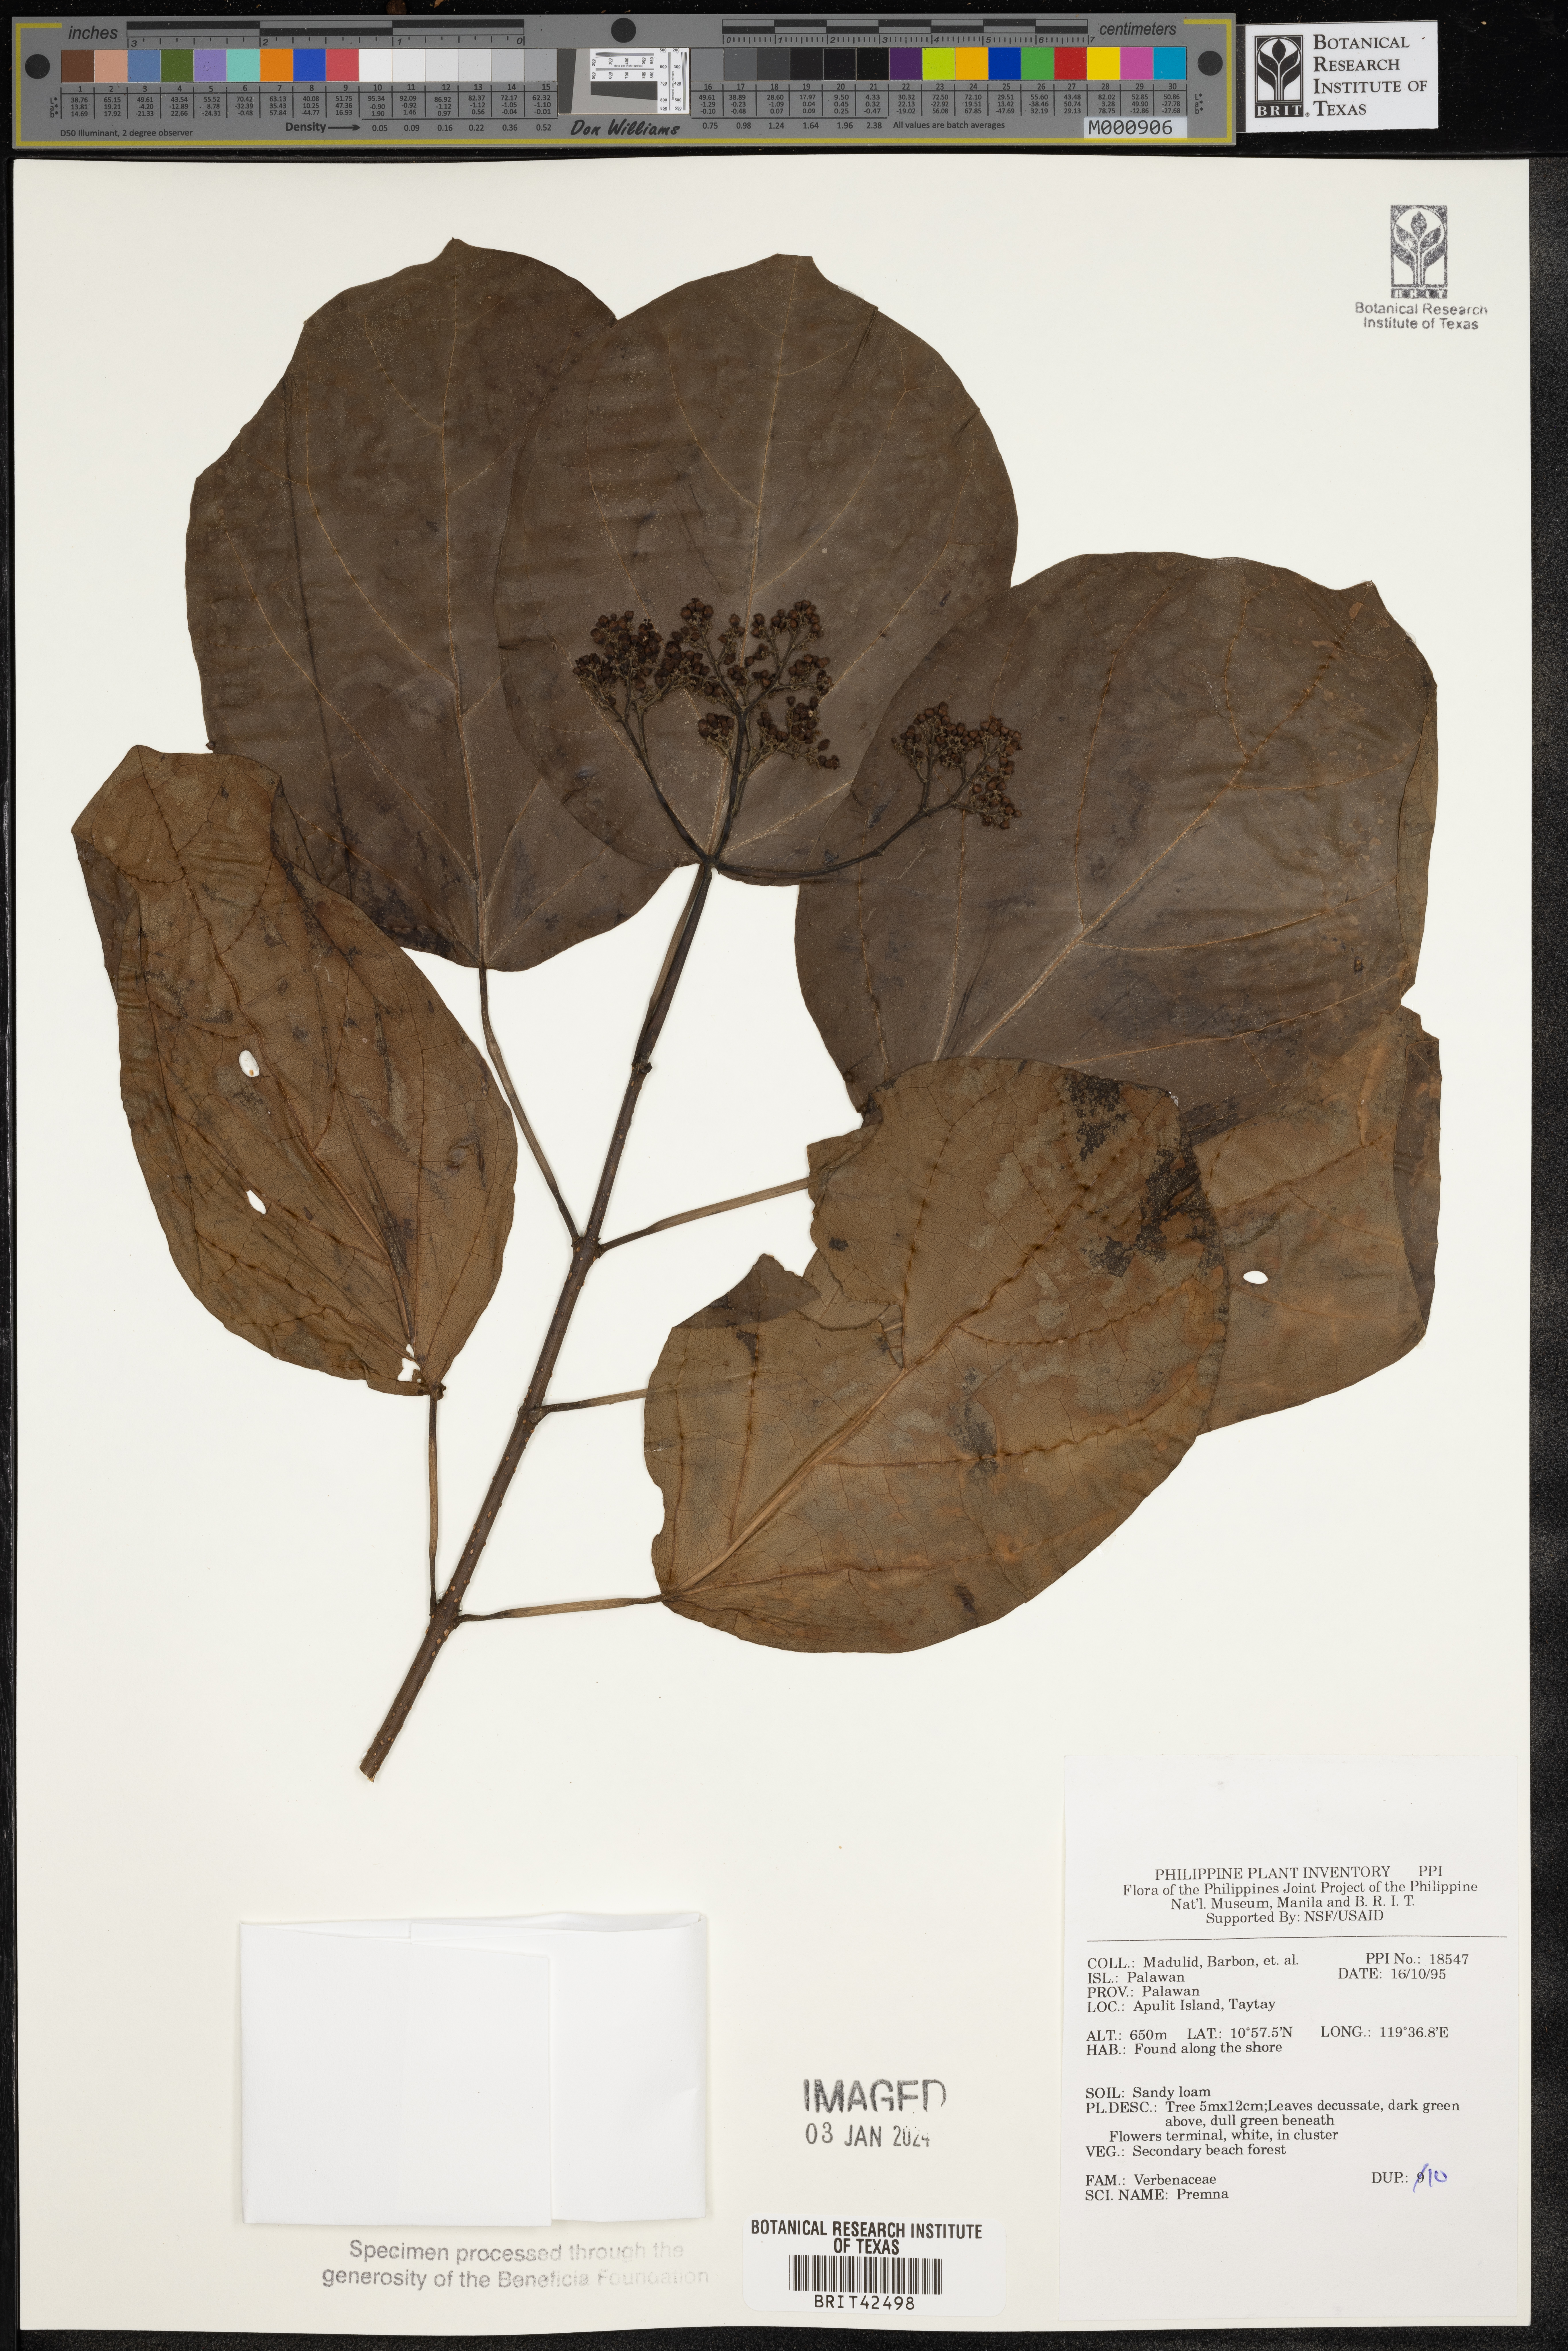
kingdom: Plantae
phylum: Tracheophyta
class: Magnoliopsida
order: Lamiales
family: Lamiaceae
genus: Premna
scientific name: Premna
